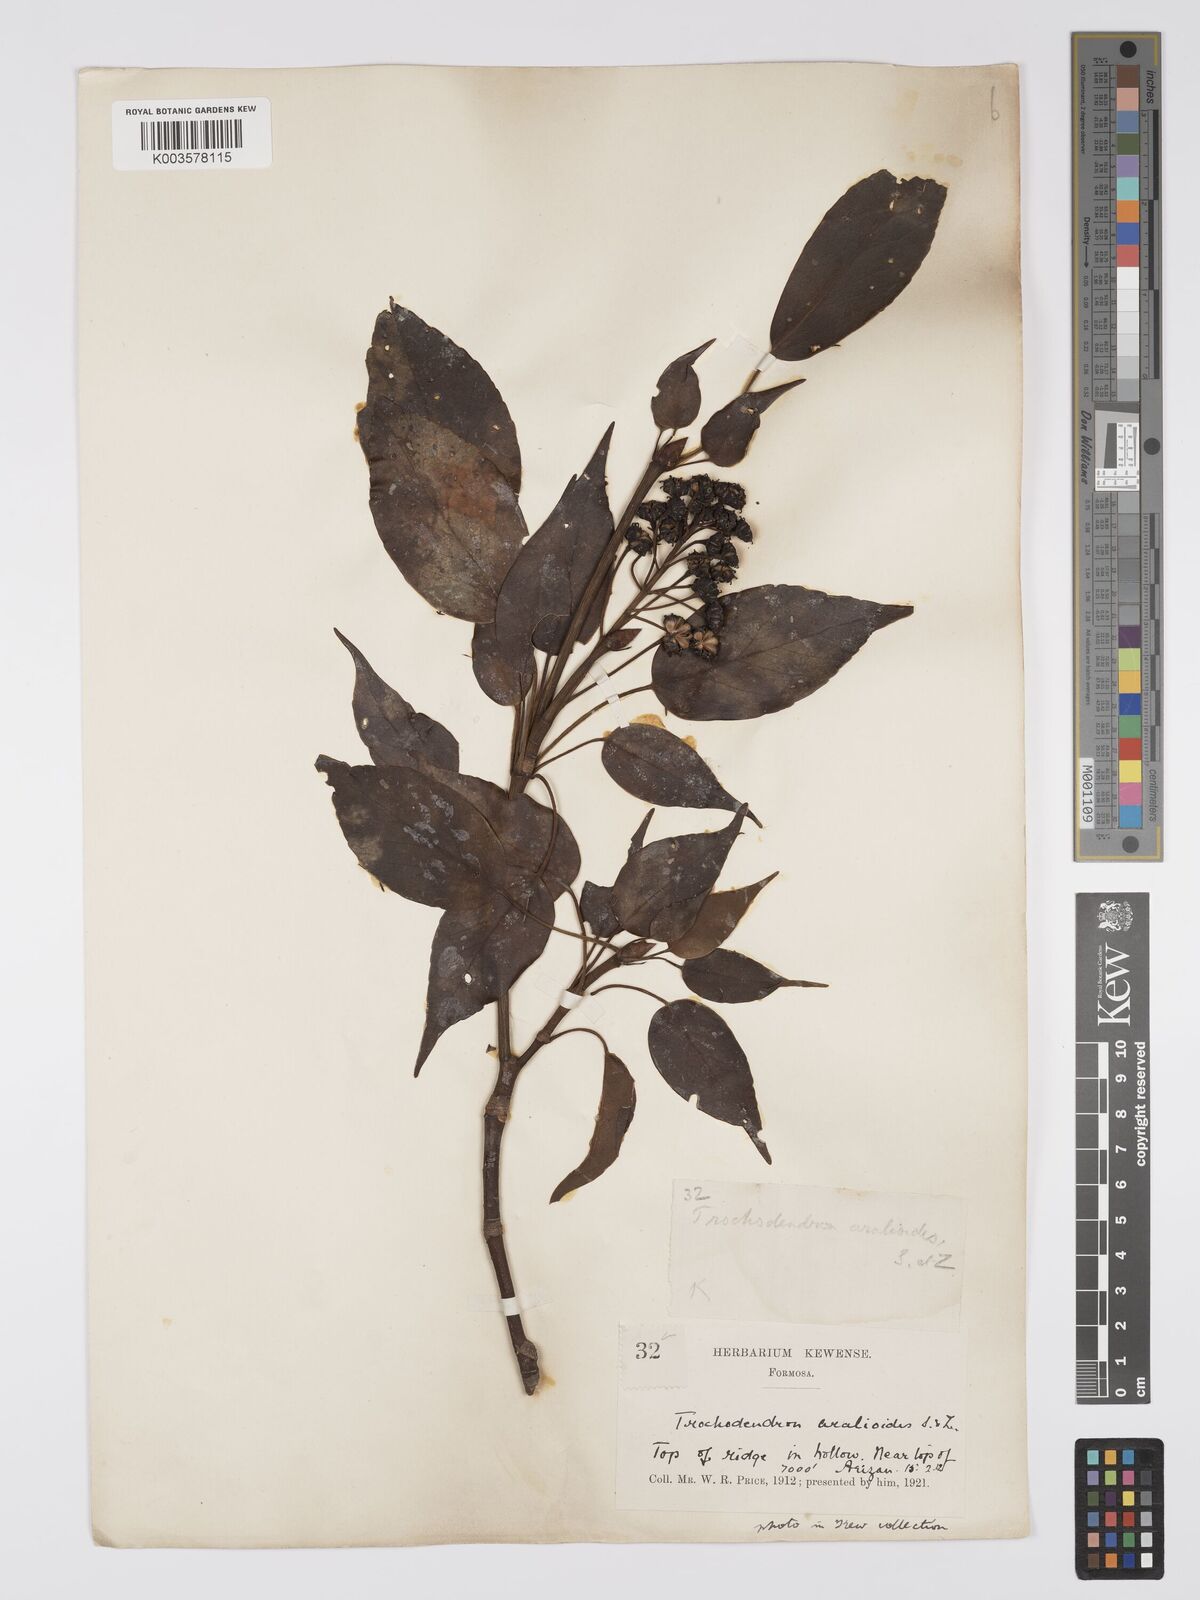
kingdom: Plantae
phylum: Tracheophyta
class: Magnoliopsida
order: Trochodendrales
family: Trochodendraceae
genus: Trochodendron
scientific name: Trochodendron
